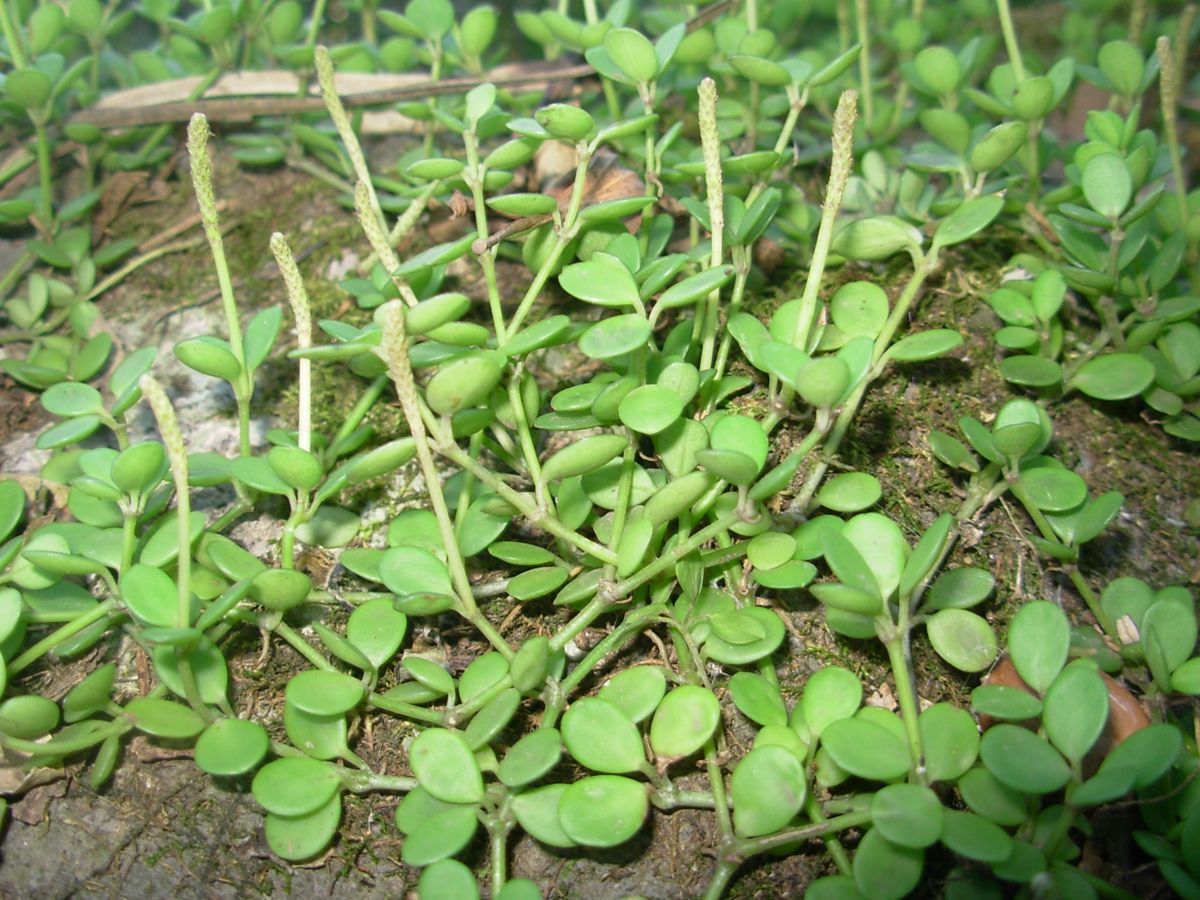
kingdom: Plantae
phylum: Tracheophyta
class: Magnoliopsida
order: Piperales
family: Piperaceae
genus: Peperomia
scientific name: Peperomia tenerrima
